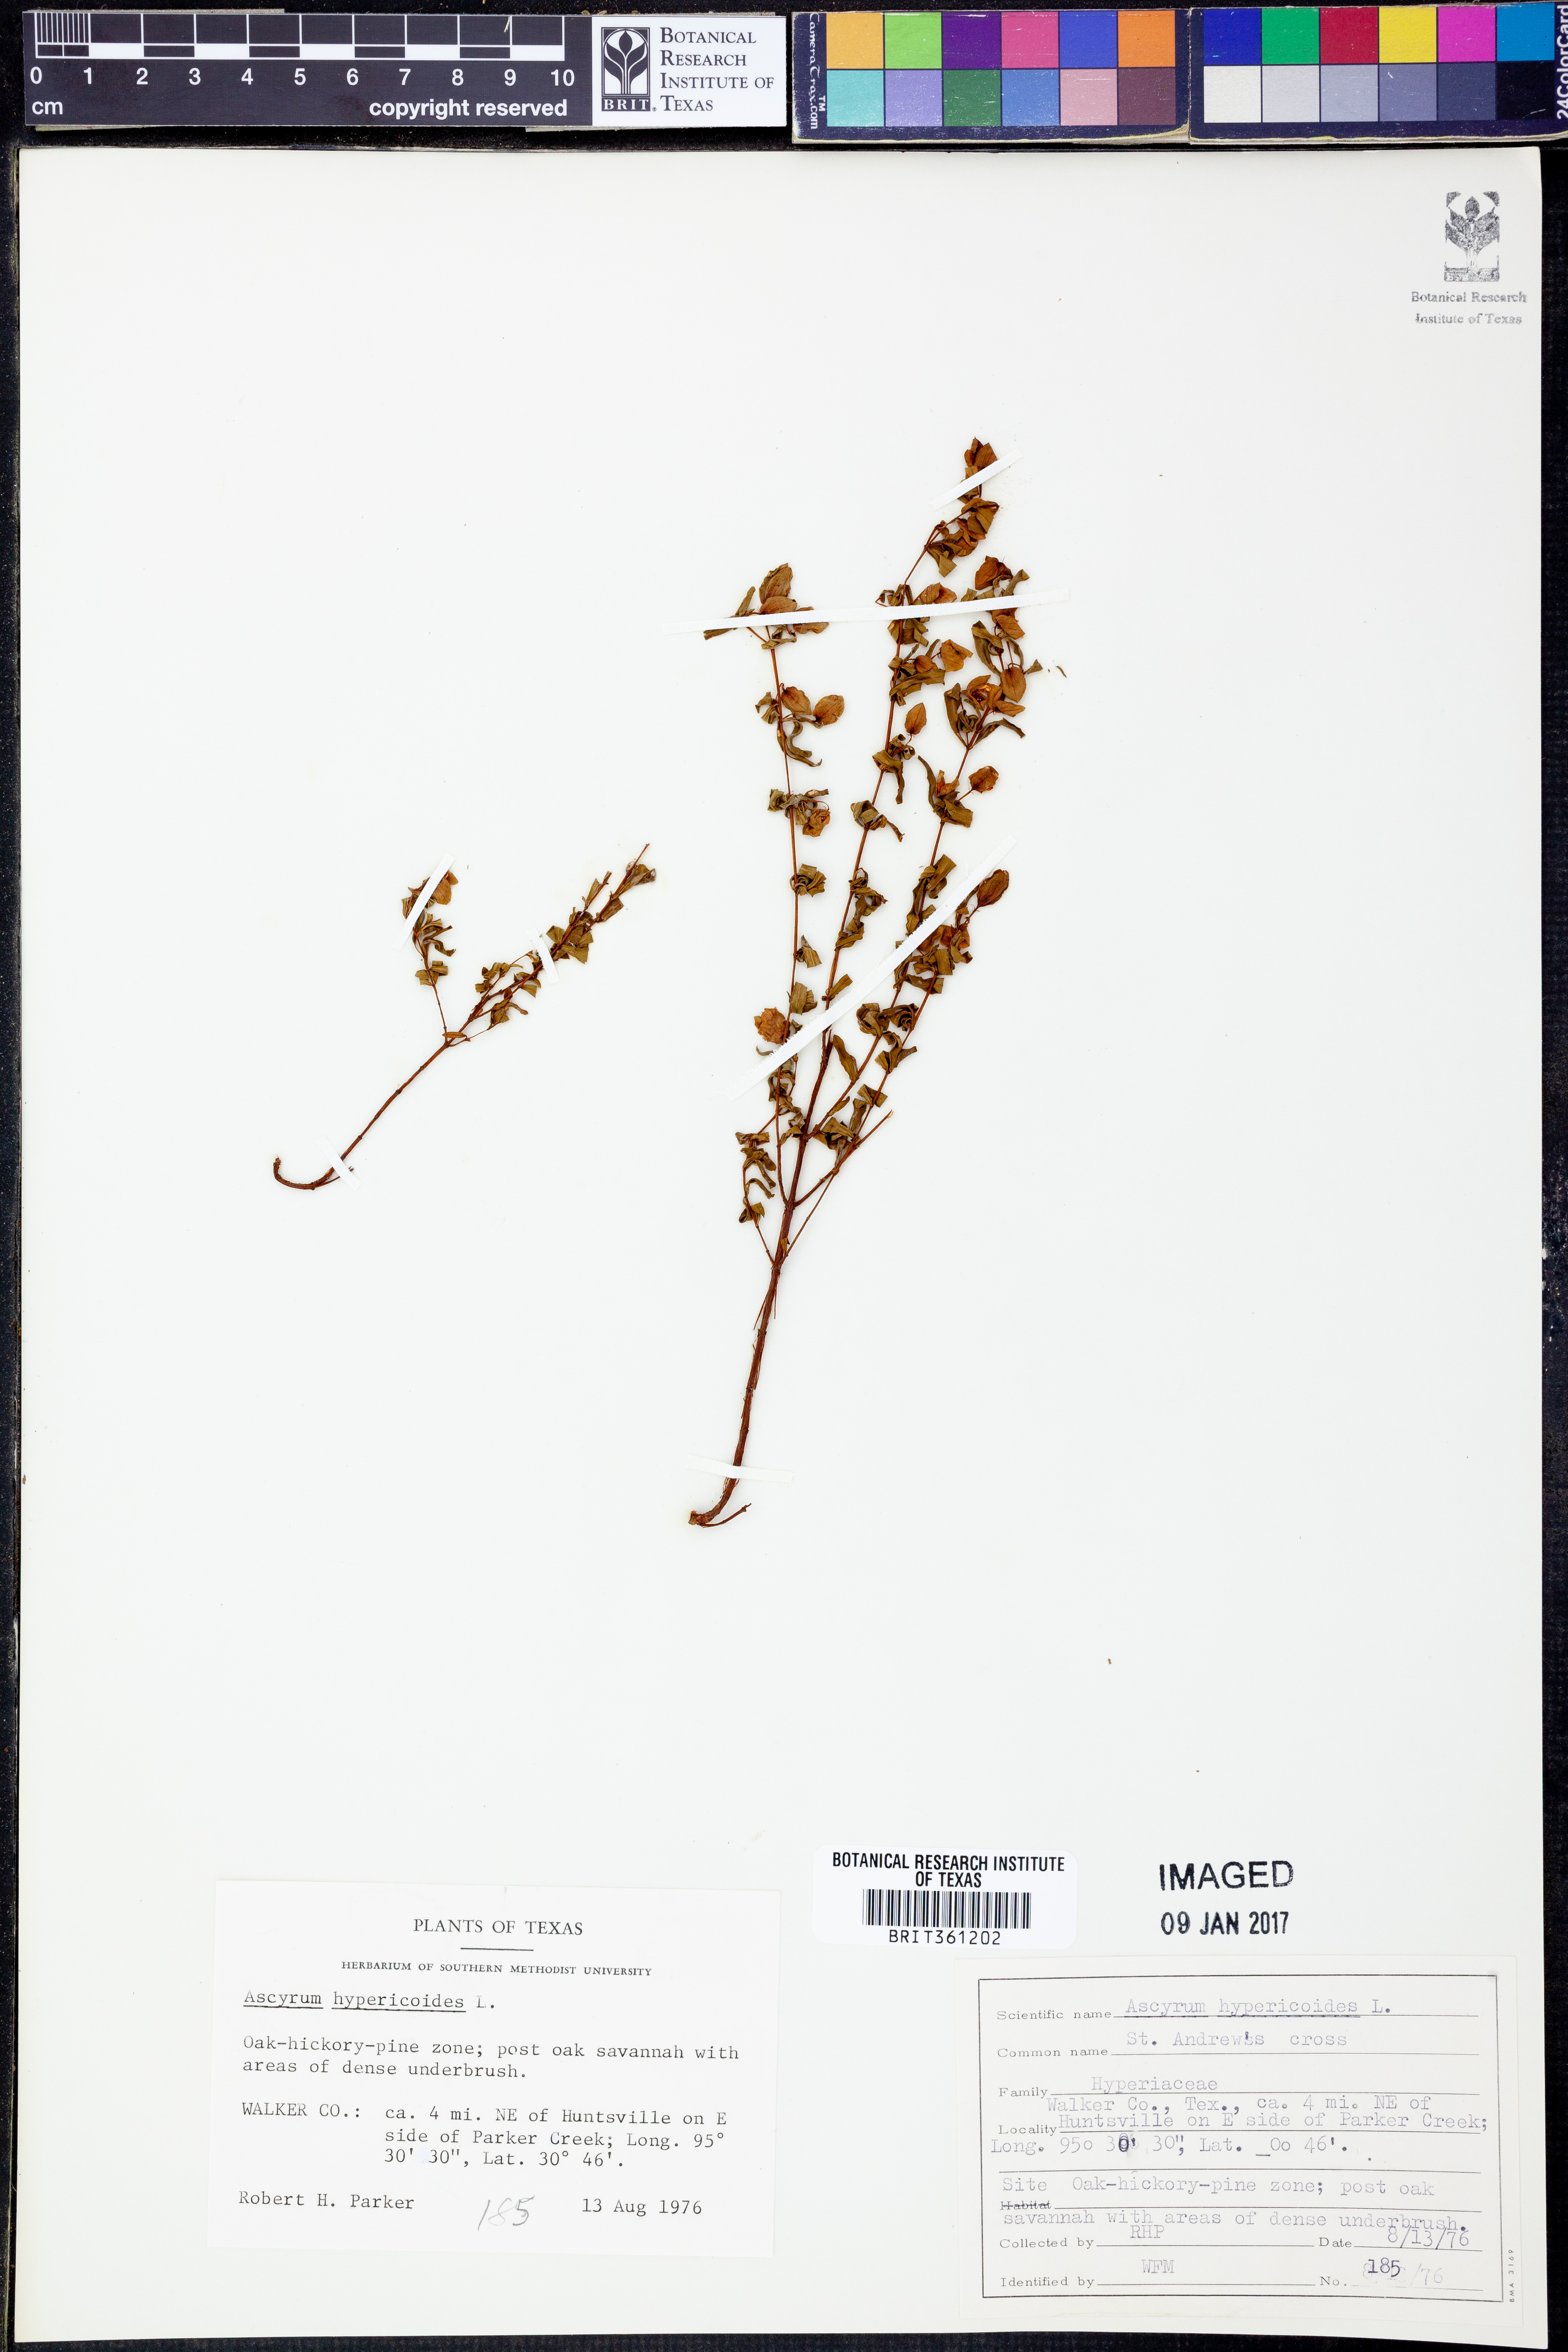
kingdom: Plantae
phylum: Tracheophyta
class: Magnoliopsida
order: Malpighiales
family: Hypericaceae
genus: Hypericum
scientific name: Hypericum hypericoides
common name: St. andrew's cross
